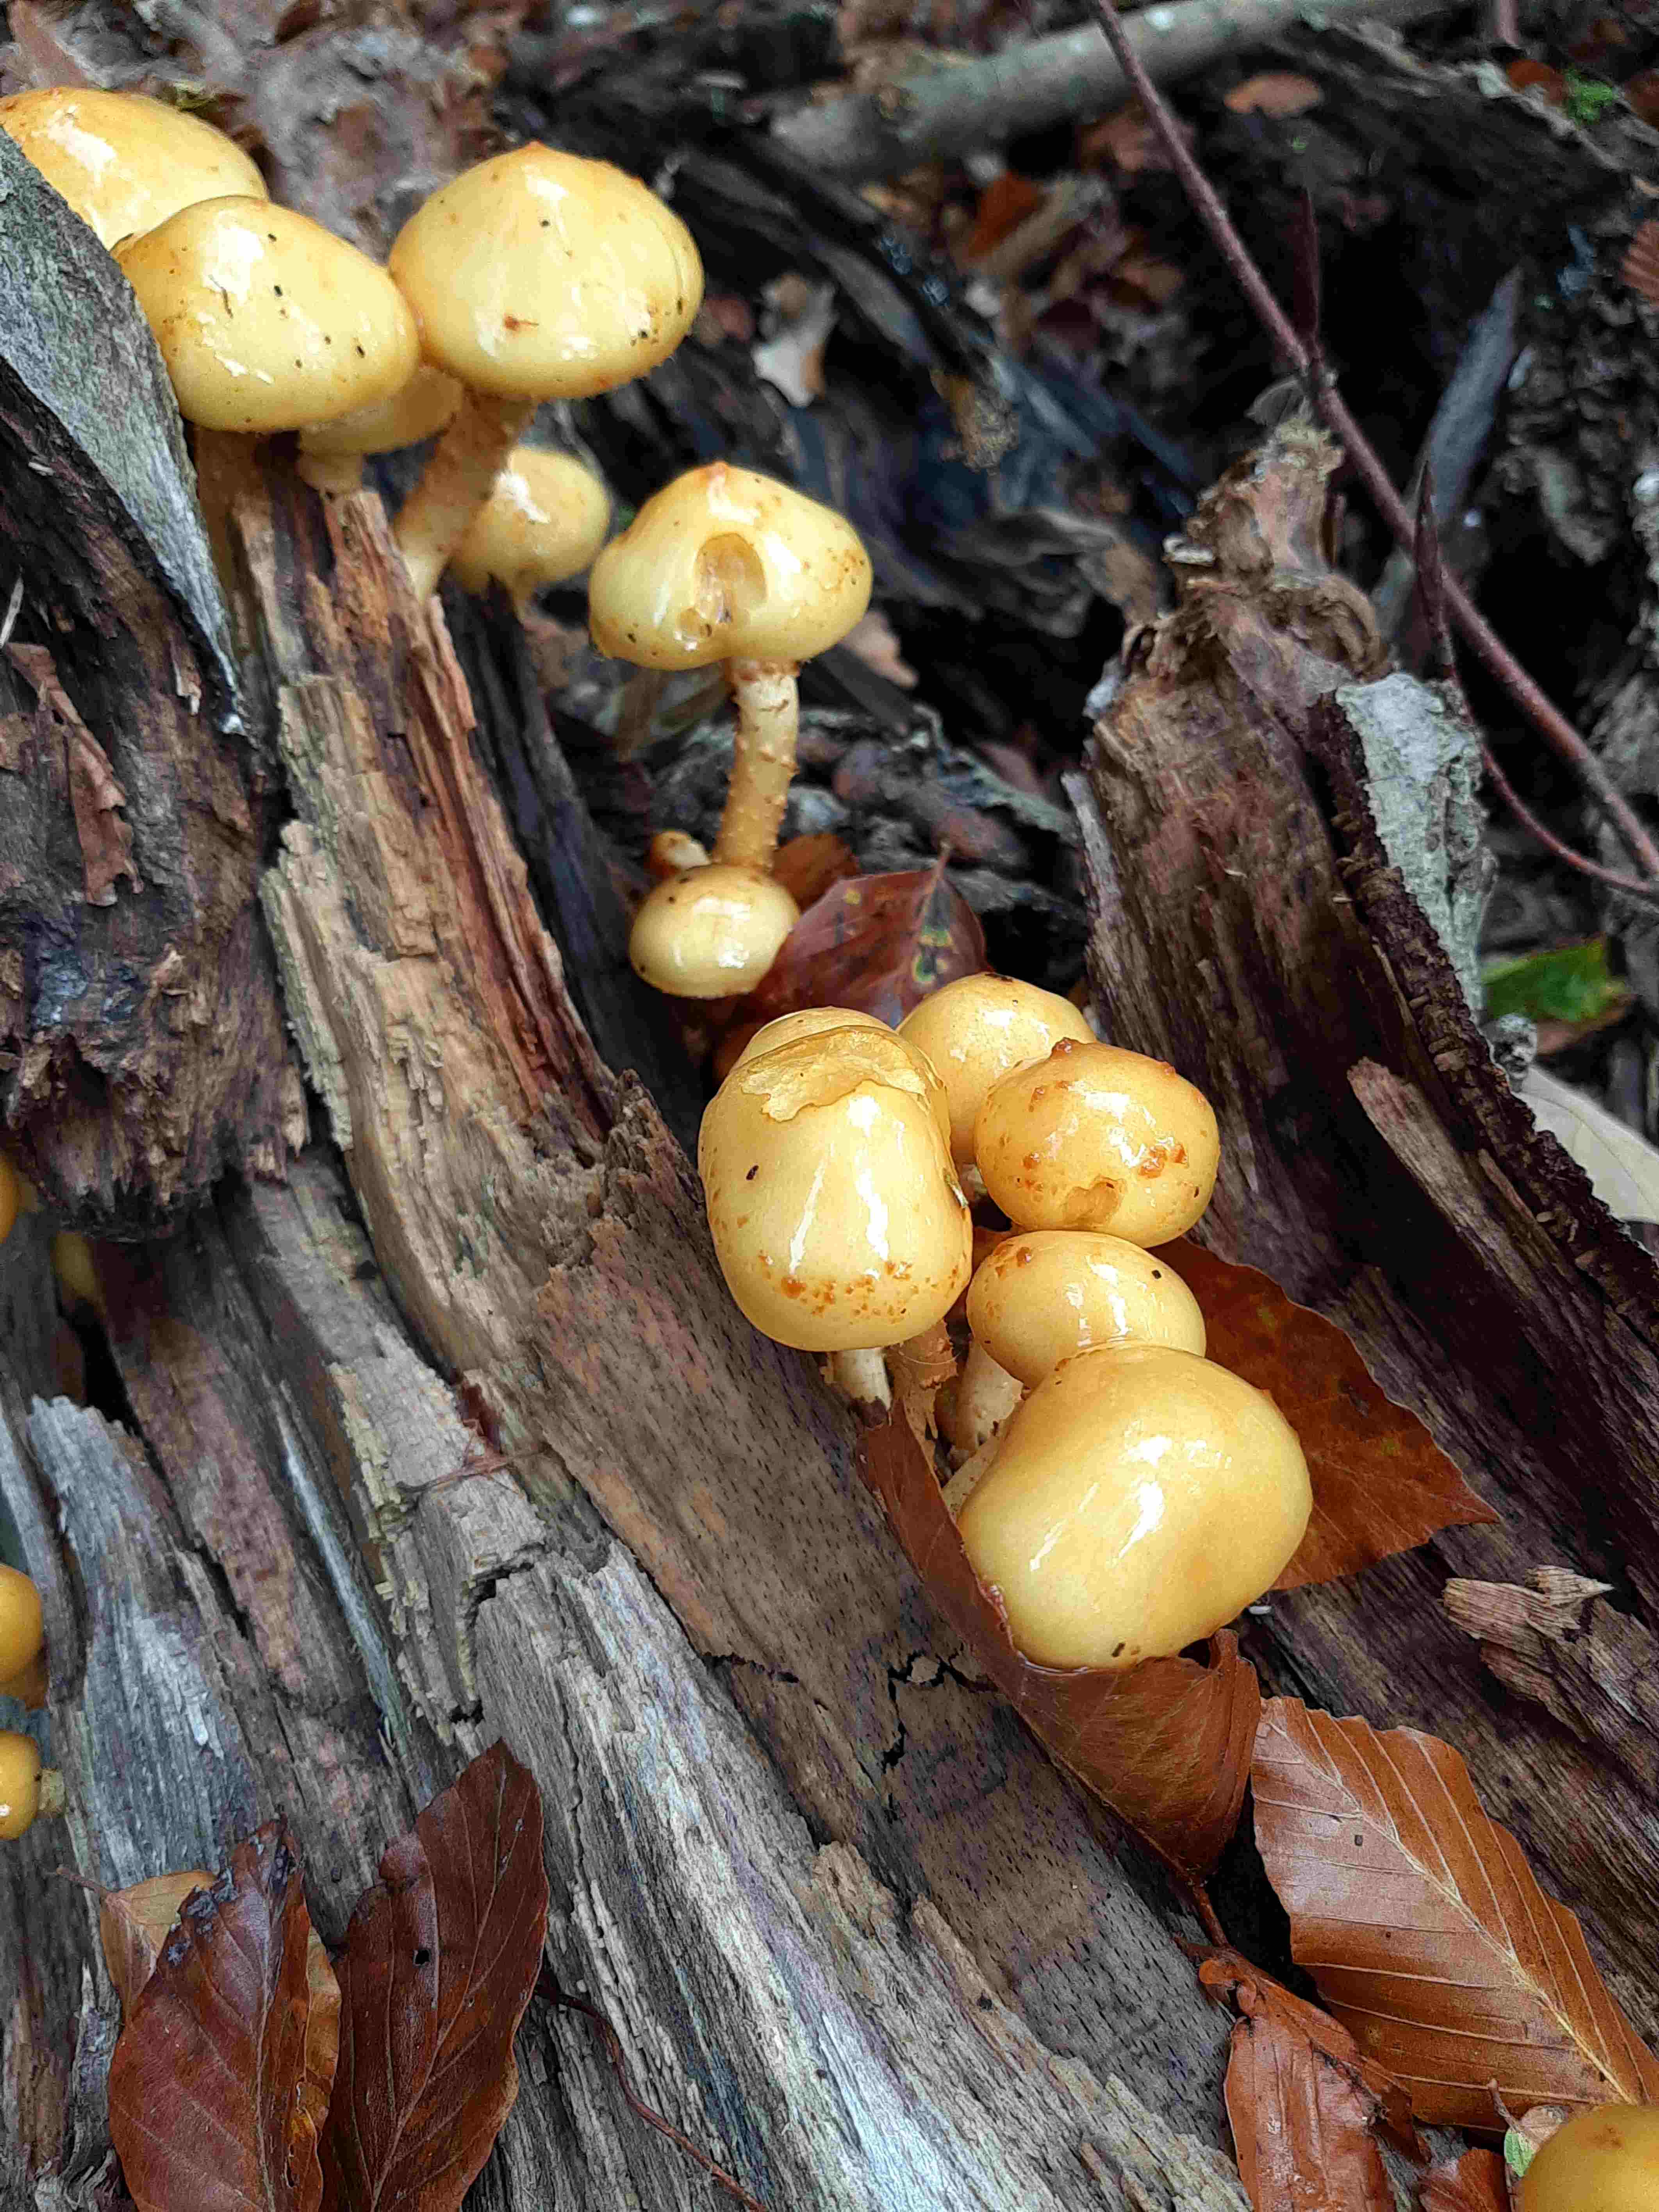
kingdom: Fungi
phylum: Basidiomycota
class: Agaricomycetes
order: Agaricales
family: Strophariaceae
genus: Pholiota
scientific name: Pholiota adiposa
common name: højtsiddende skælhat
